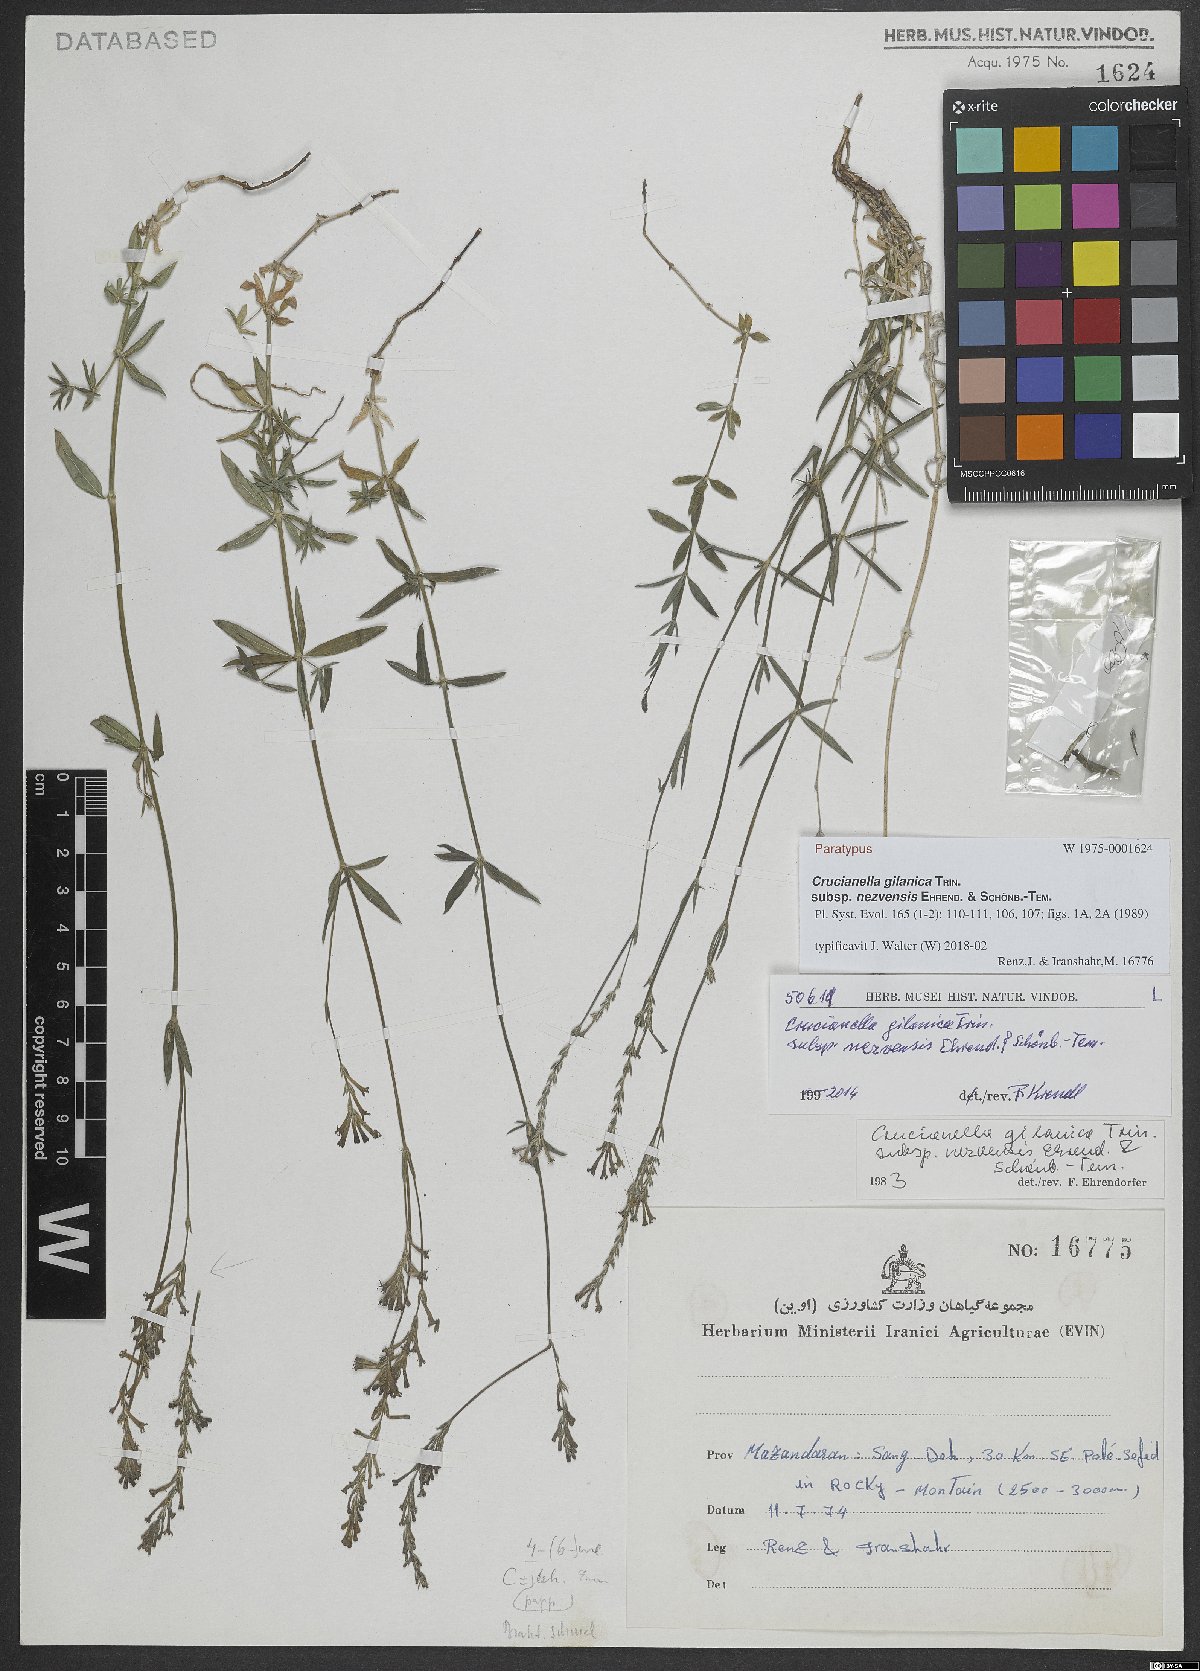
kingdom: Plantae
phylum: Tracheophyta
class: Magnoliopsida
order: Gentianales
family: Rubiaceae
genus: Crucianella
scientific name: Crucianella gilanica
